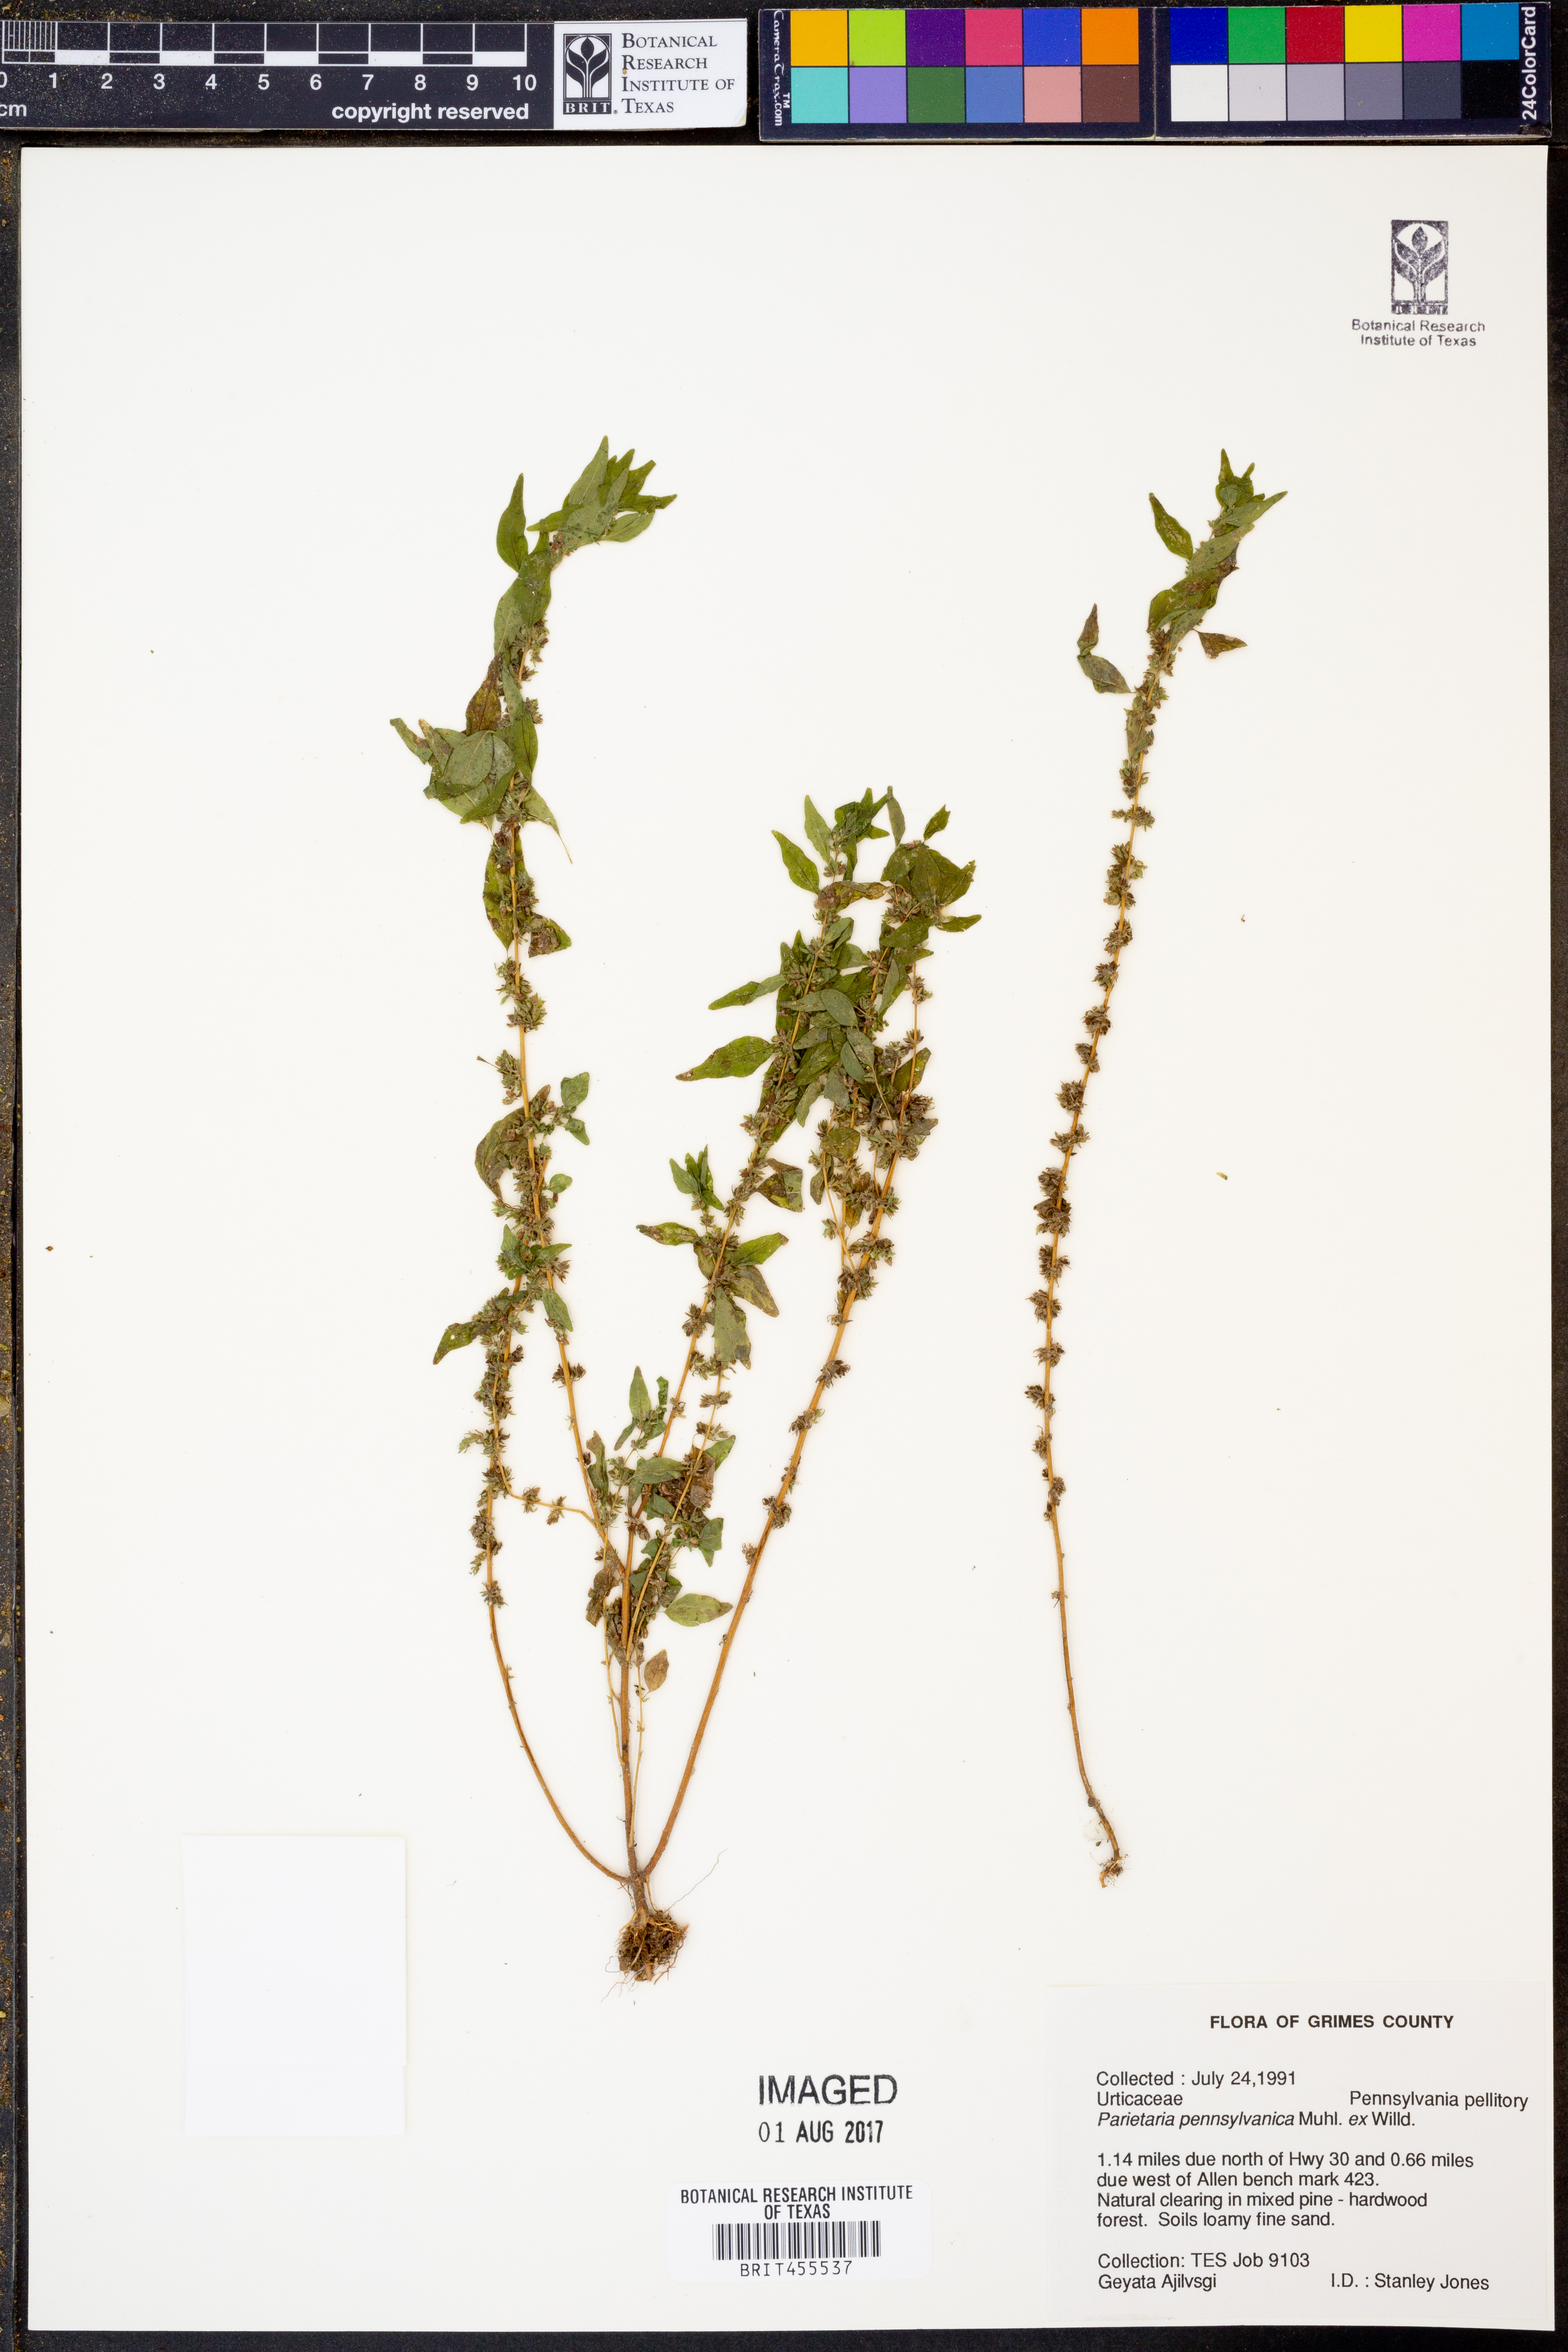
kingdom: Plantae
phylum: Tracheophyta
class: Magnoliopsida
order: Rosales
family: Urticaceae
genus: Parietaria
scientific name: Parietaria pensylvanica
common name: Pennsylvania pellitory
